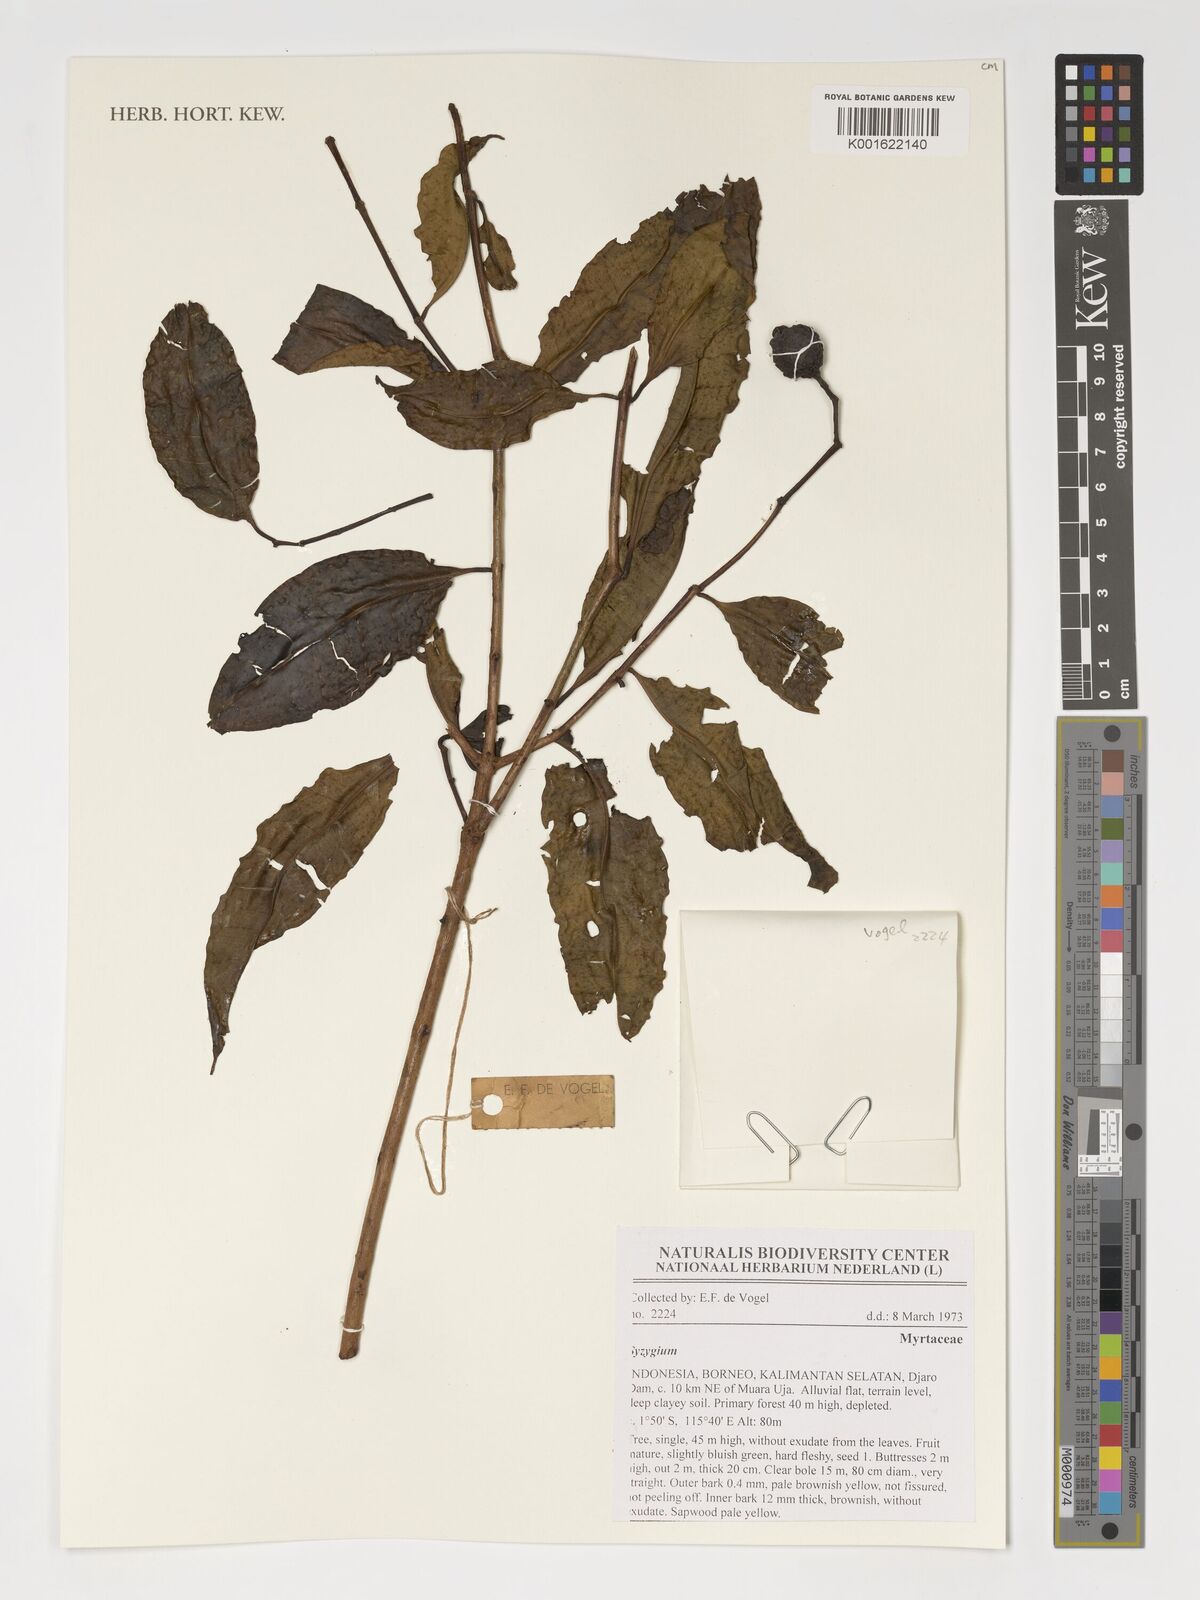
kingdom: Plantae
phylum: Tracheophyta
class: Magnoliopsida
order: Myrtales
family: Myrtaceae
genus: Syzygium
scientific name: Syzygium
